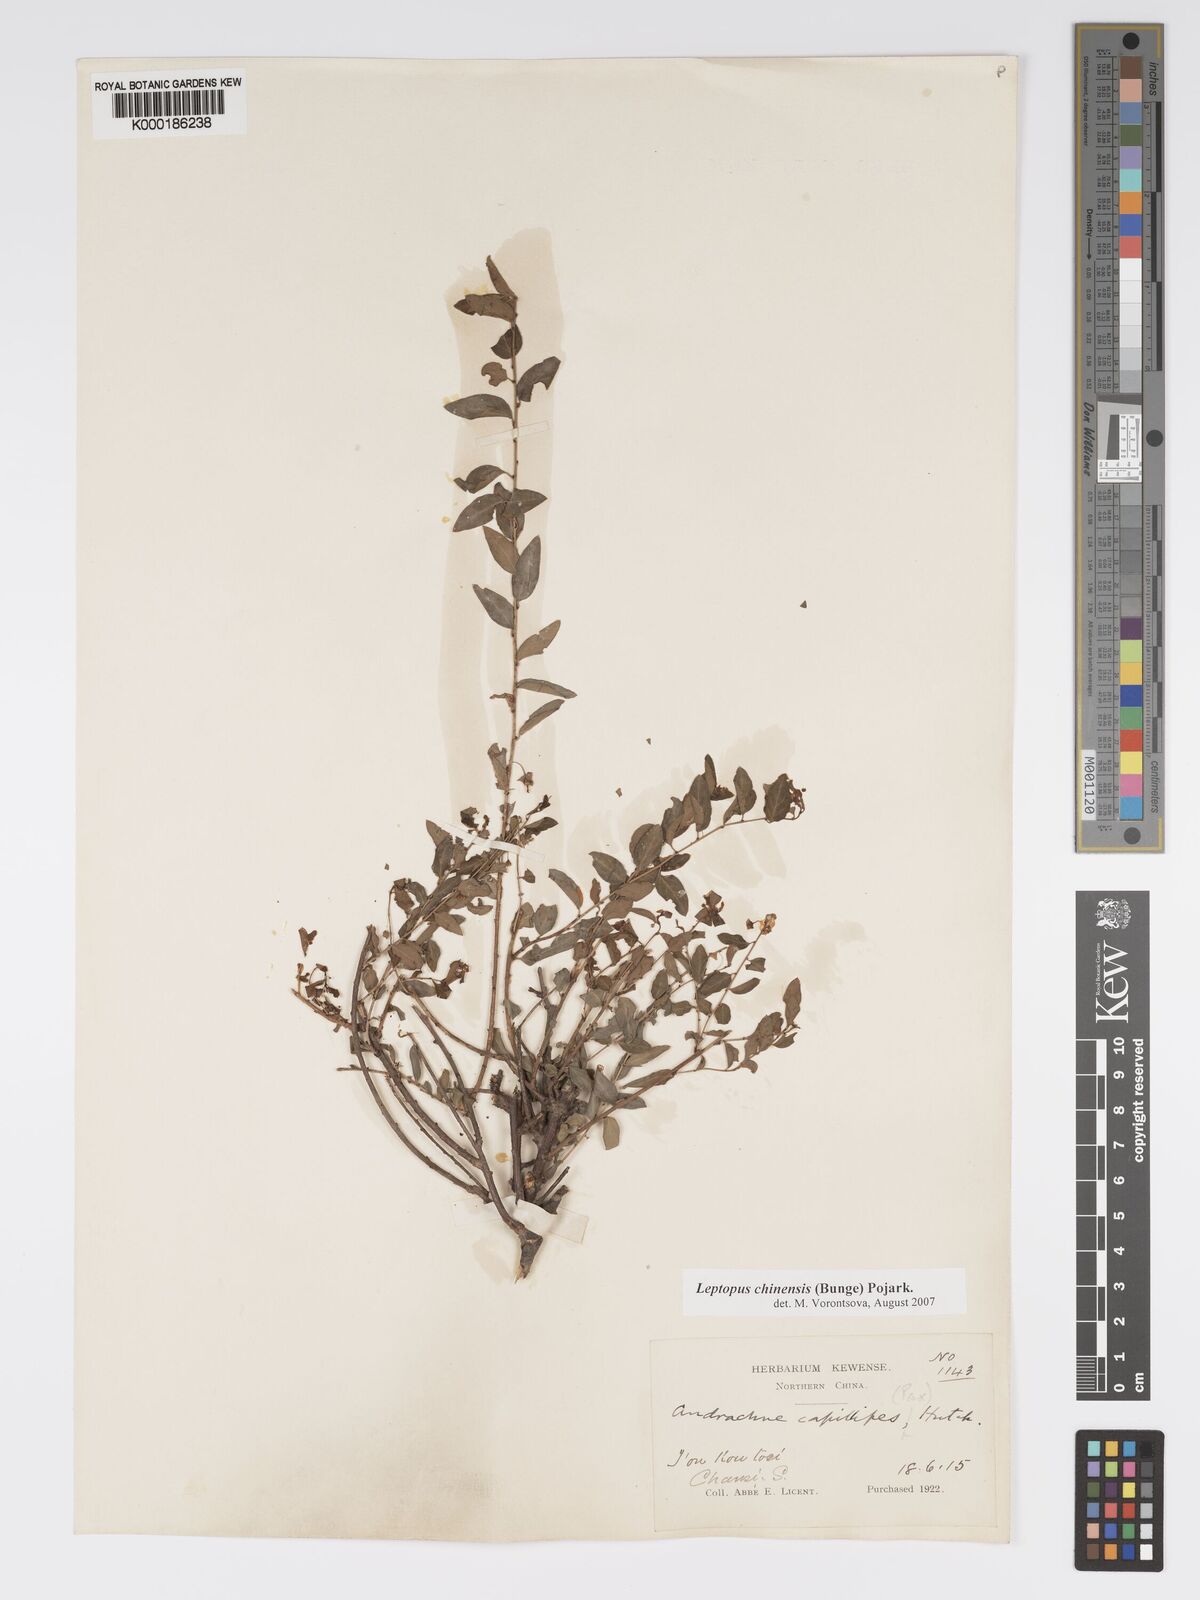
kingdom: Plantae
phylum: Tracheophyta
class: Magnoliopsida
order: Malpighiales
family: Phyllanthaceae
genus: Leptopus
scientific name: Leptopus chinensis
